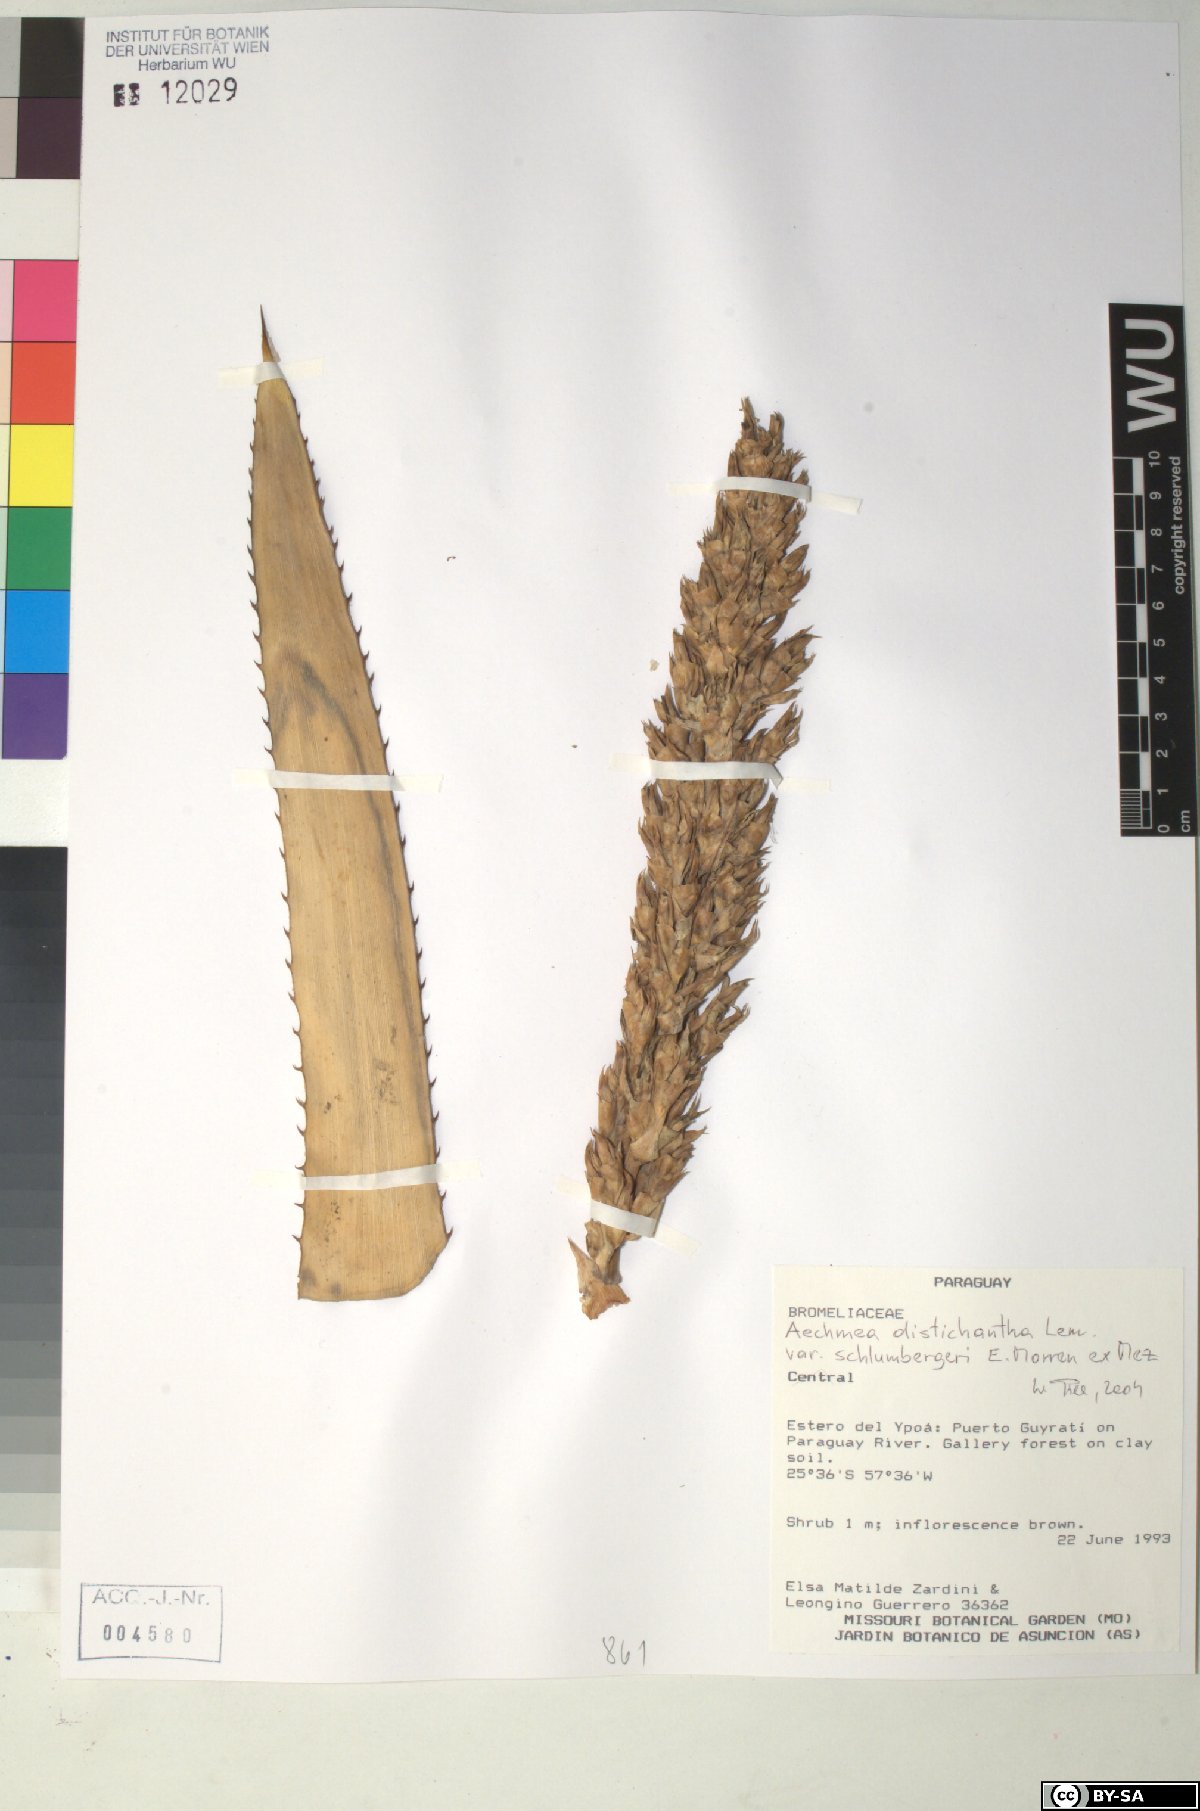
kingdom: Plantae
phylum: Tracheophyta
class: Liliopsida
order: Poales
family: Bromeliaceae
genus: Aechmea
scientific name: Aechmea distichantha
